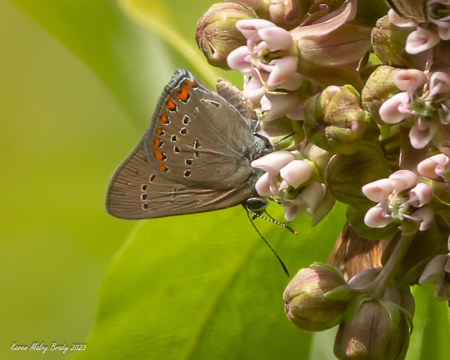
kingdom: Animalia
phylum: Arthropoda
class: Insecta
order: Lepidoptera
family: Lycaenidae
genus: Harkenclenus
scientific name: Harkenclenus titus
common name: Coral Hairstreak
